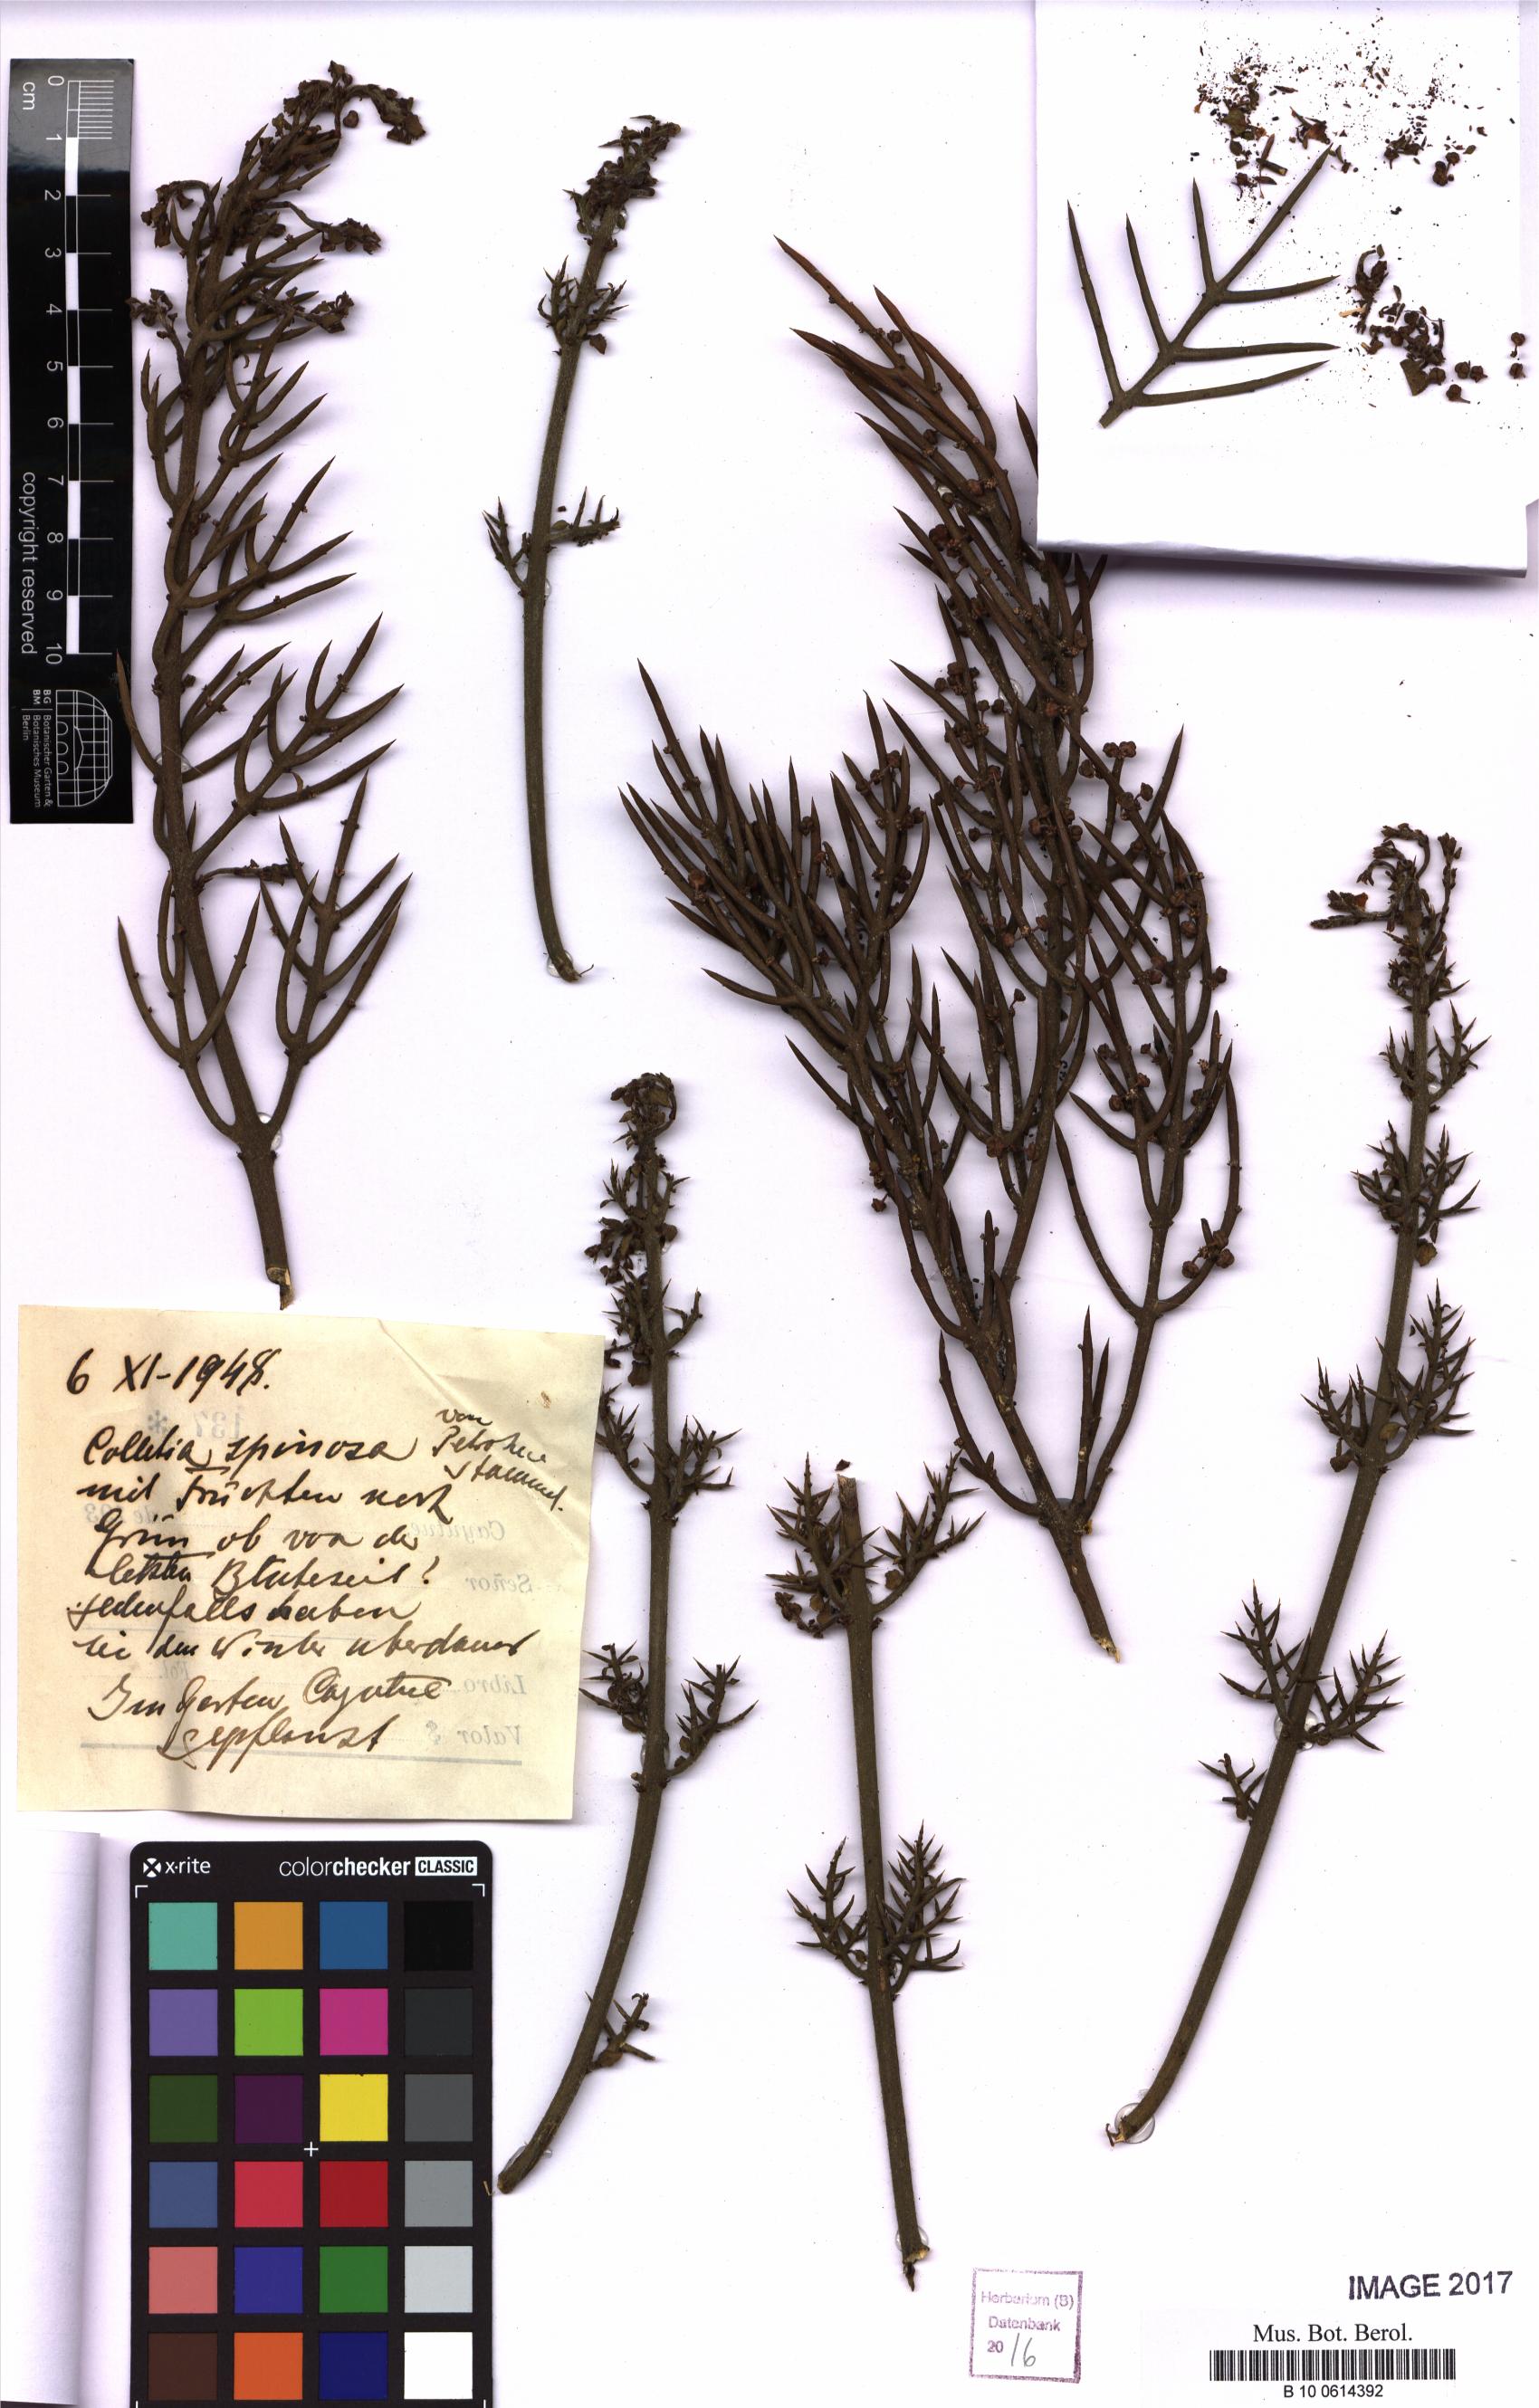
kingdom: Plantae
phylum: Tracheophyta
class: Magnoliopsida
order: Rosales
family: Rhamnaceae
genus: Colletia
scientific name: Colletia spinosissima
